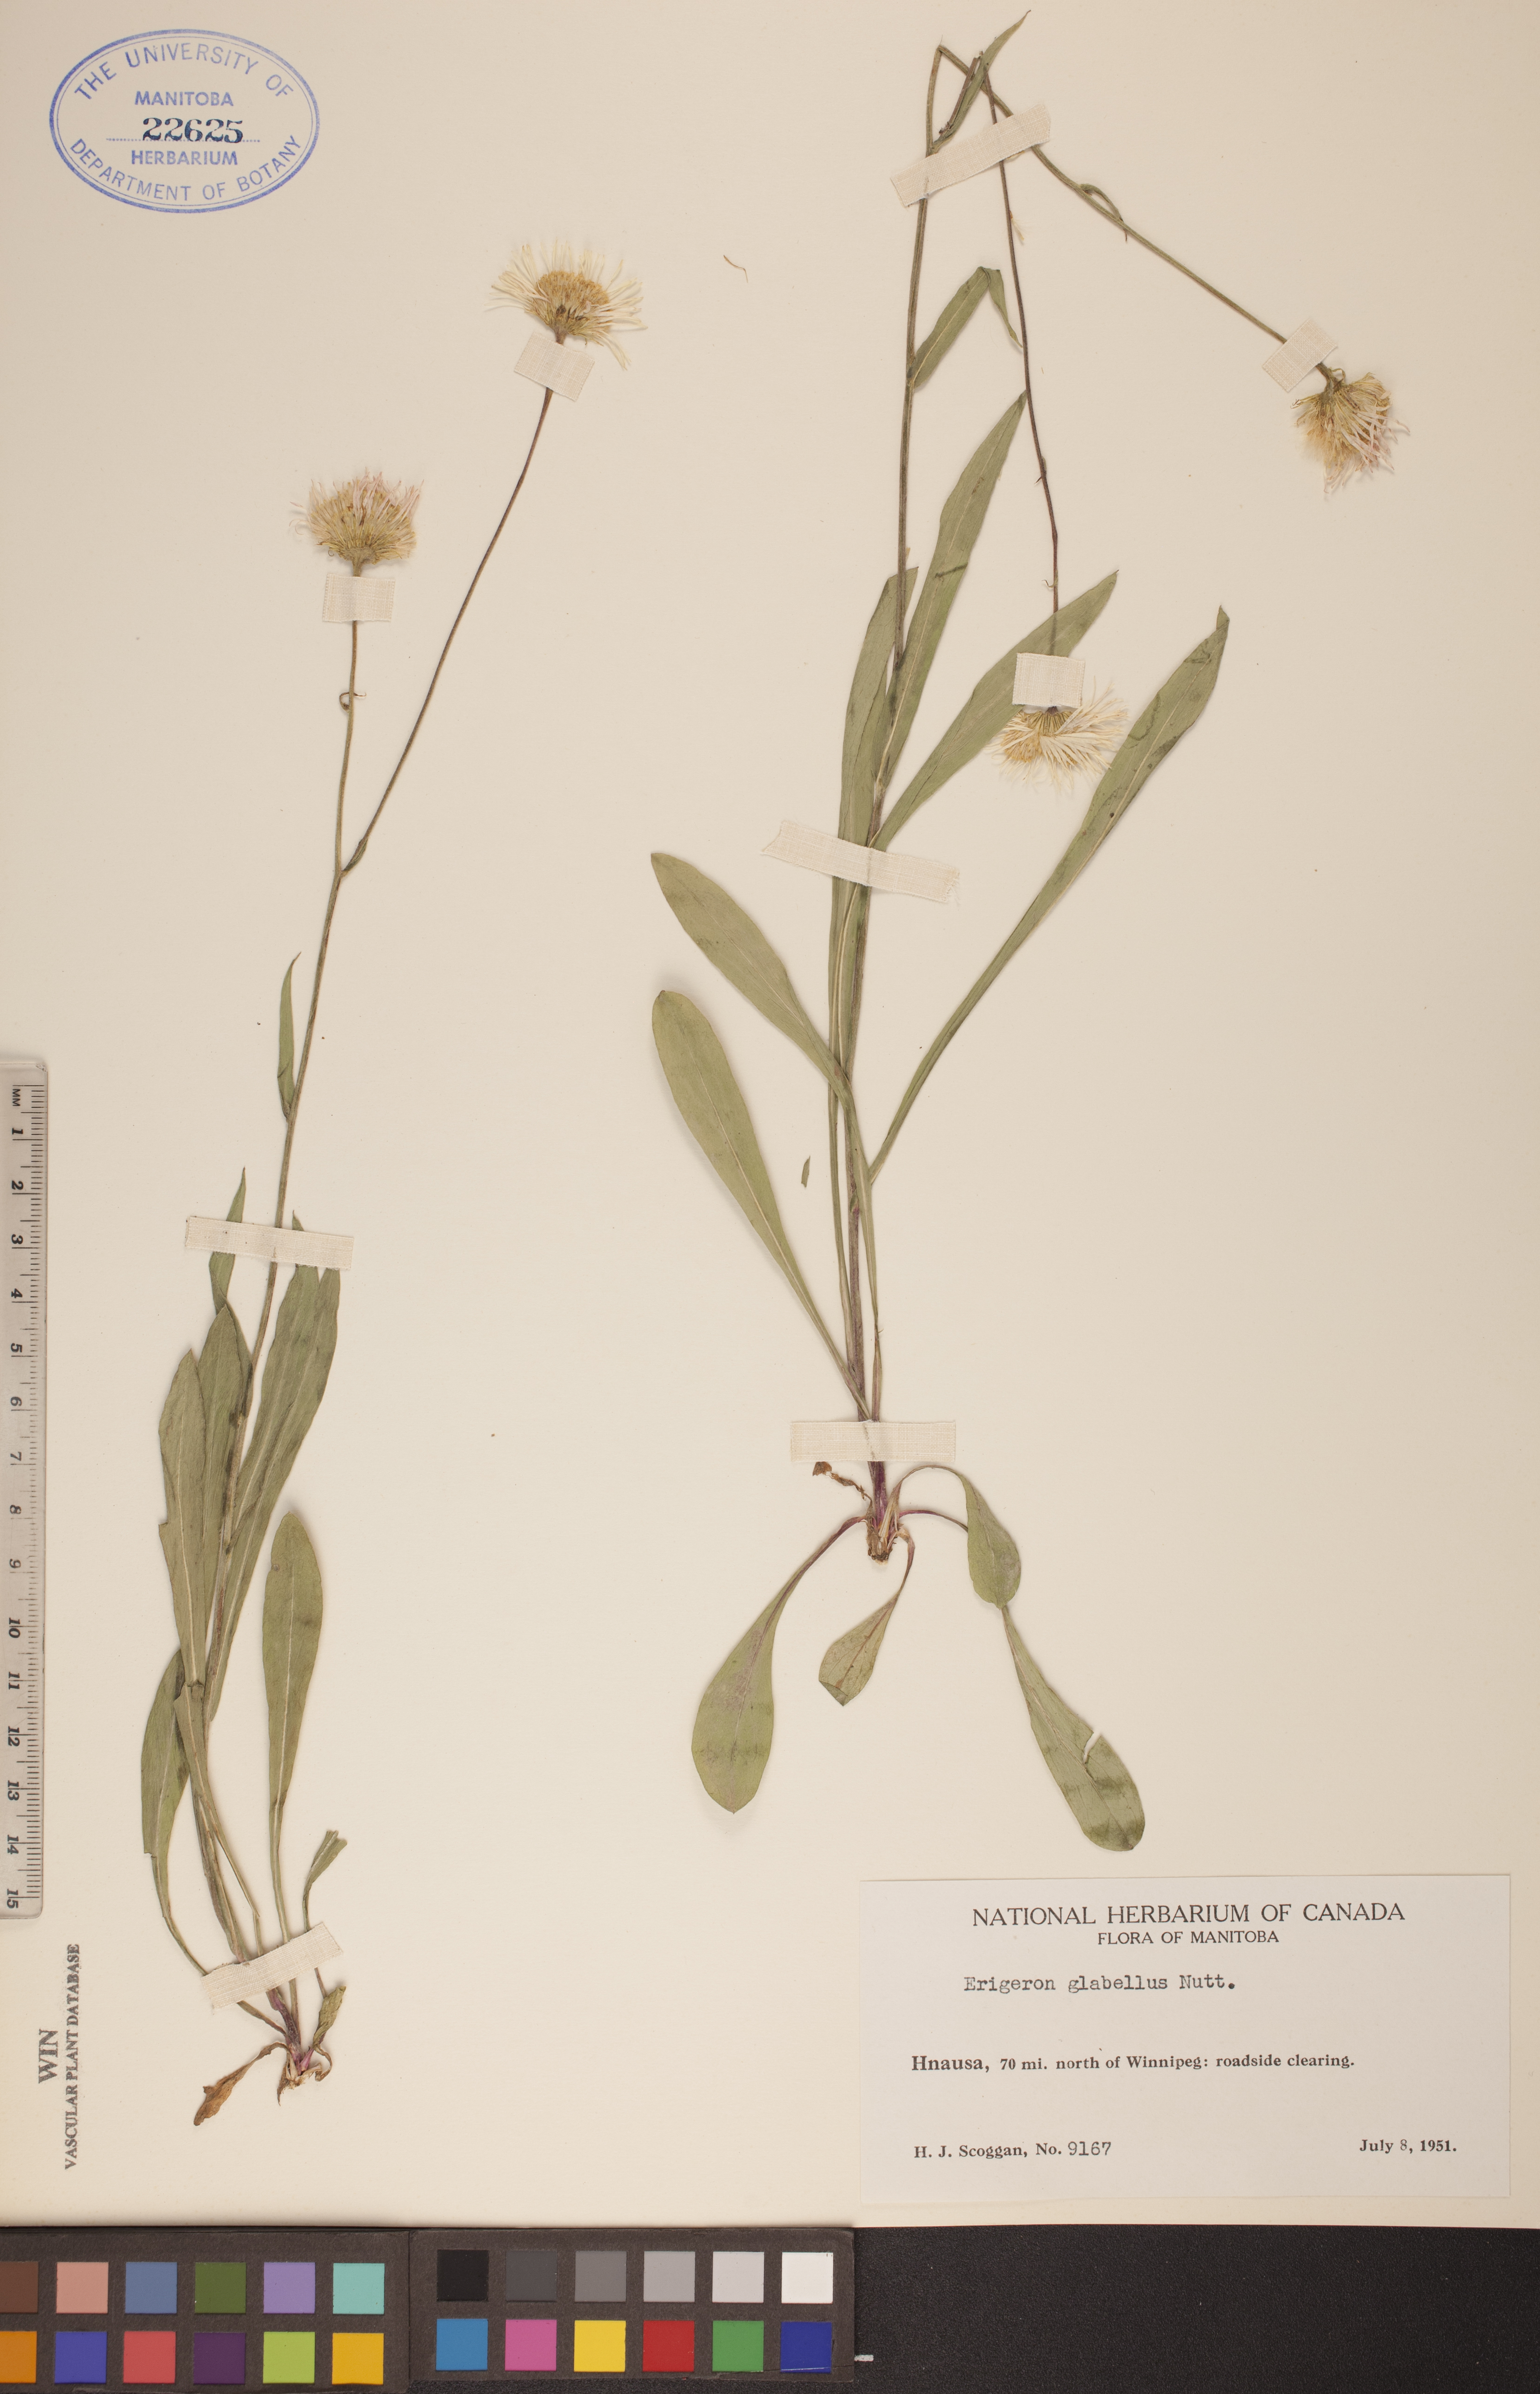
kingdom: Plantae
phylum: Tracheophyta
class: Magnoliopsida
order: Asterales
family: Asteraceae
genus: Erigeron
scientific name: Erigeron glabellus
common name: Smooth fleabane
